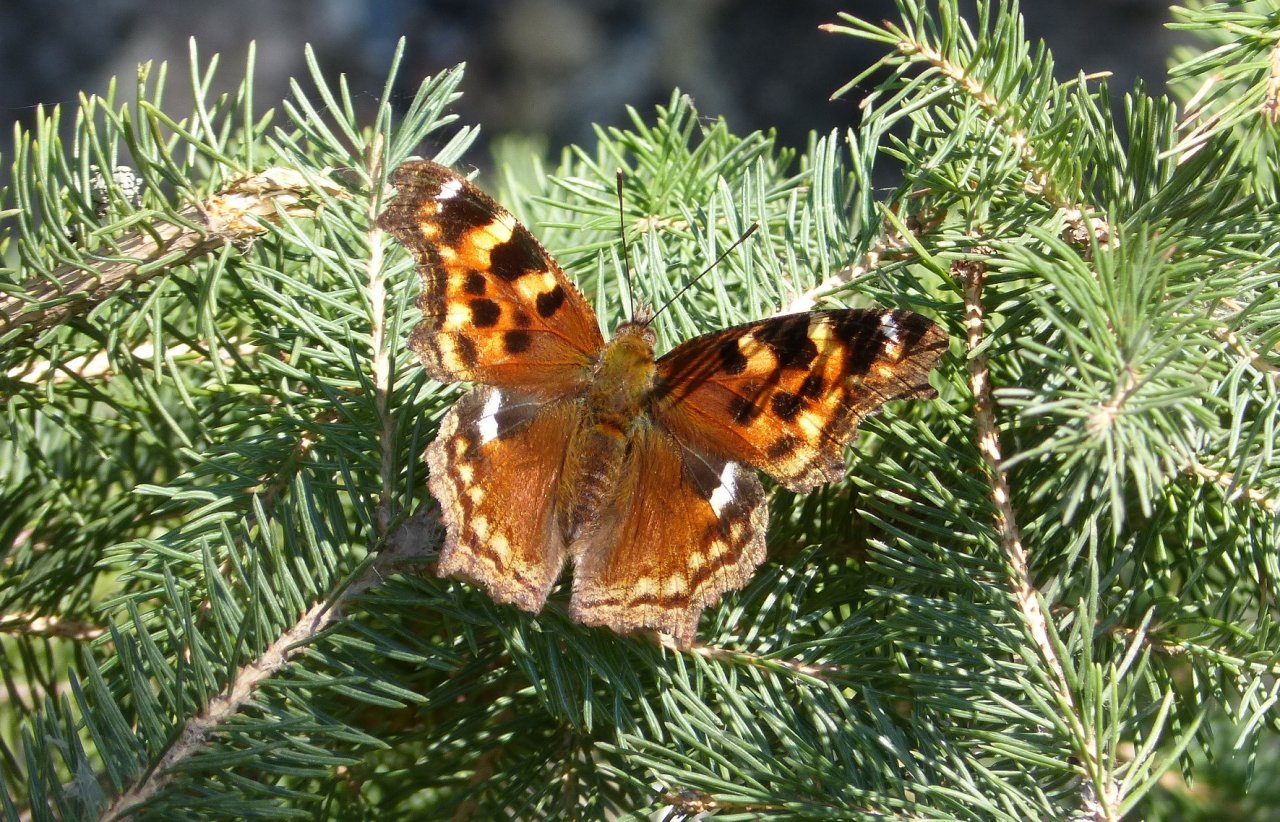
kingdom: Animalia
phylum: Arthropoda
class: Insecta
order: Lepidoptera
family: Nymphalidae
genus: Polygonia
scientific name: Polygonia vaualbum
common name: Compton Tortoiseshell
